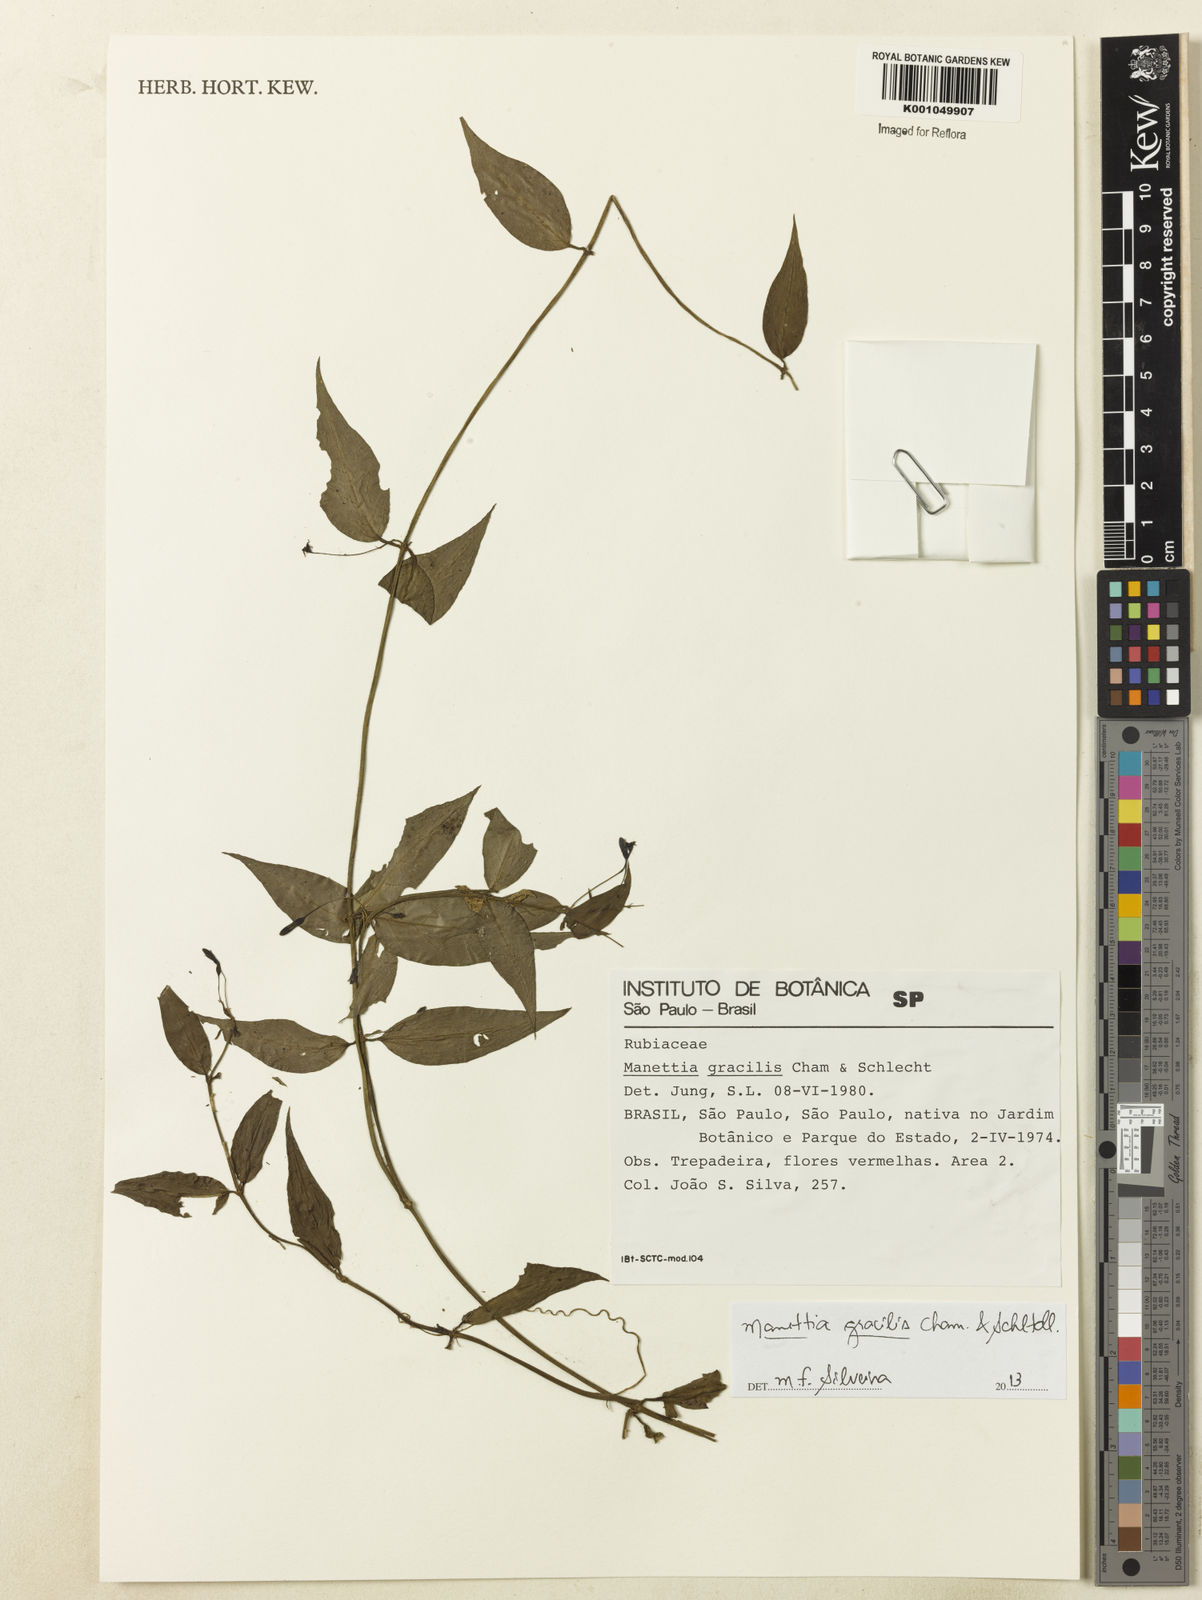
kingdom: Plantae
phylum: Tracheophyta
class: Magnoliopsida
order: Gentianales
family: Rubiaceae
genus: Manettia
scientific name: Manettia gracilis
